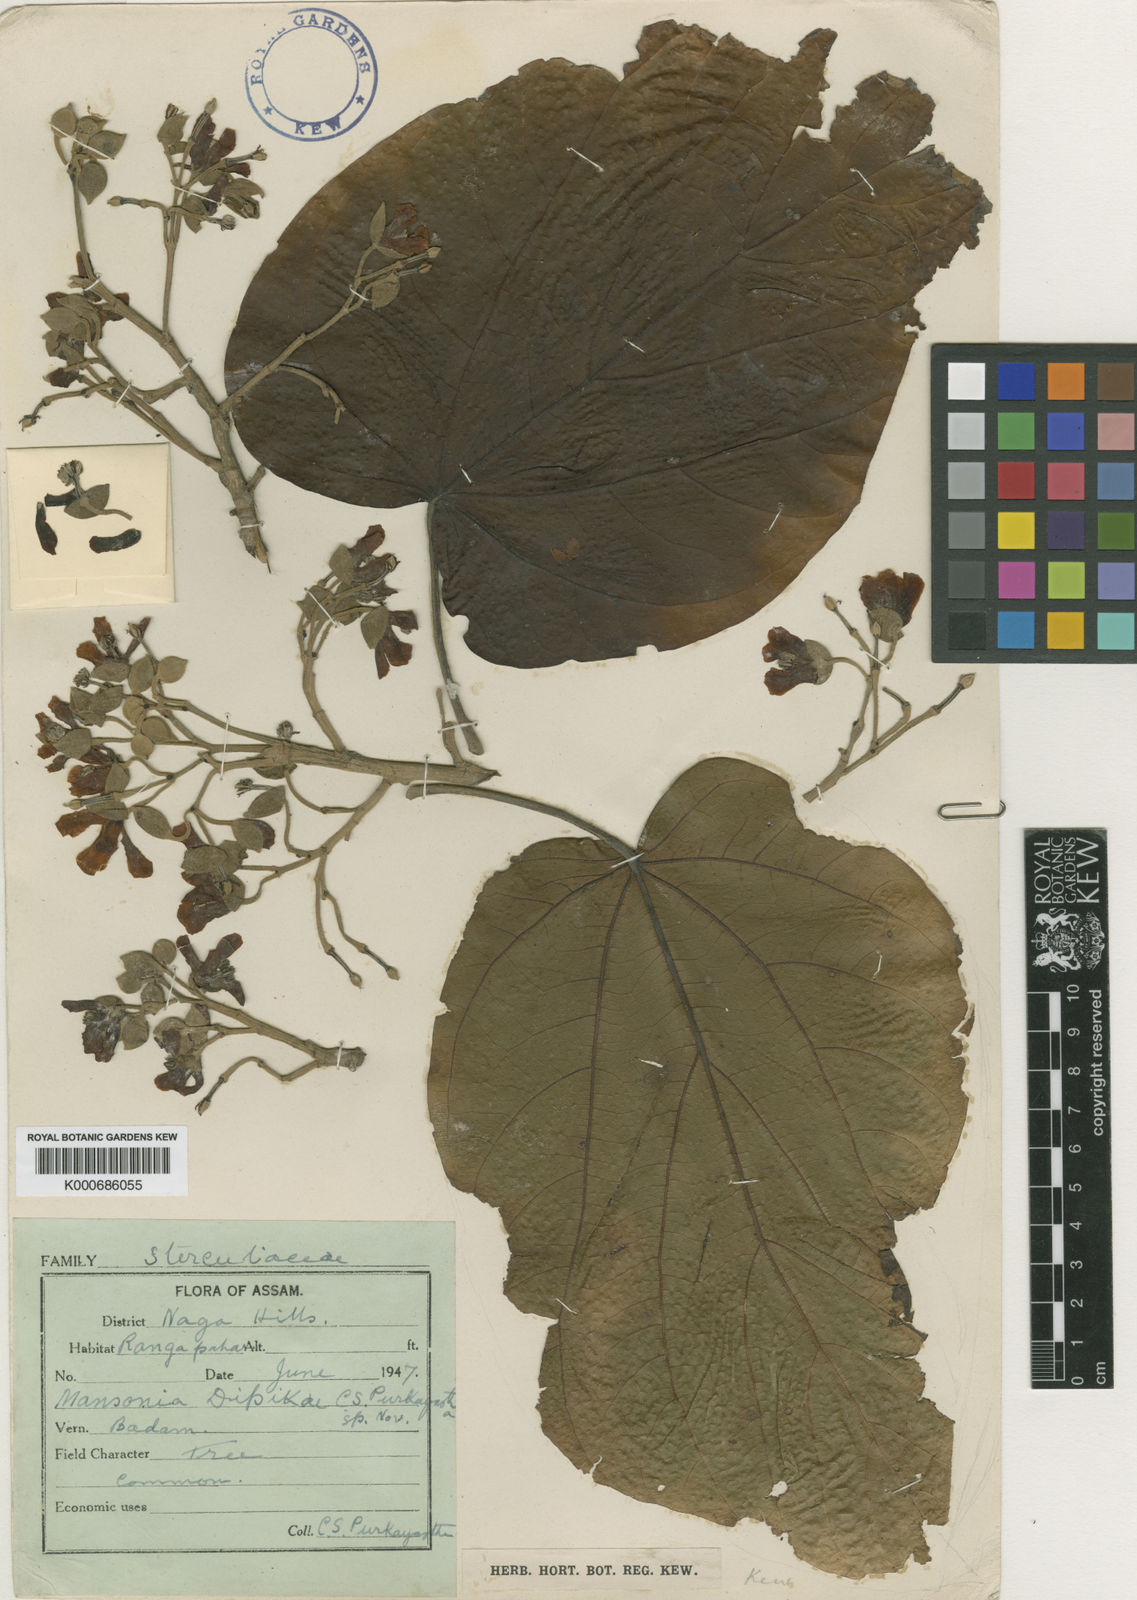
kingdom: Plantae
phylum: Tracheophyta
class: Magnoliopsida
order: Malvales
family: Malvaceae
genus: Mansonia
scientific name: Mansonia dipikae
